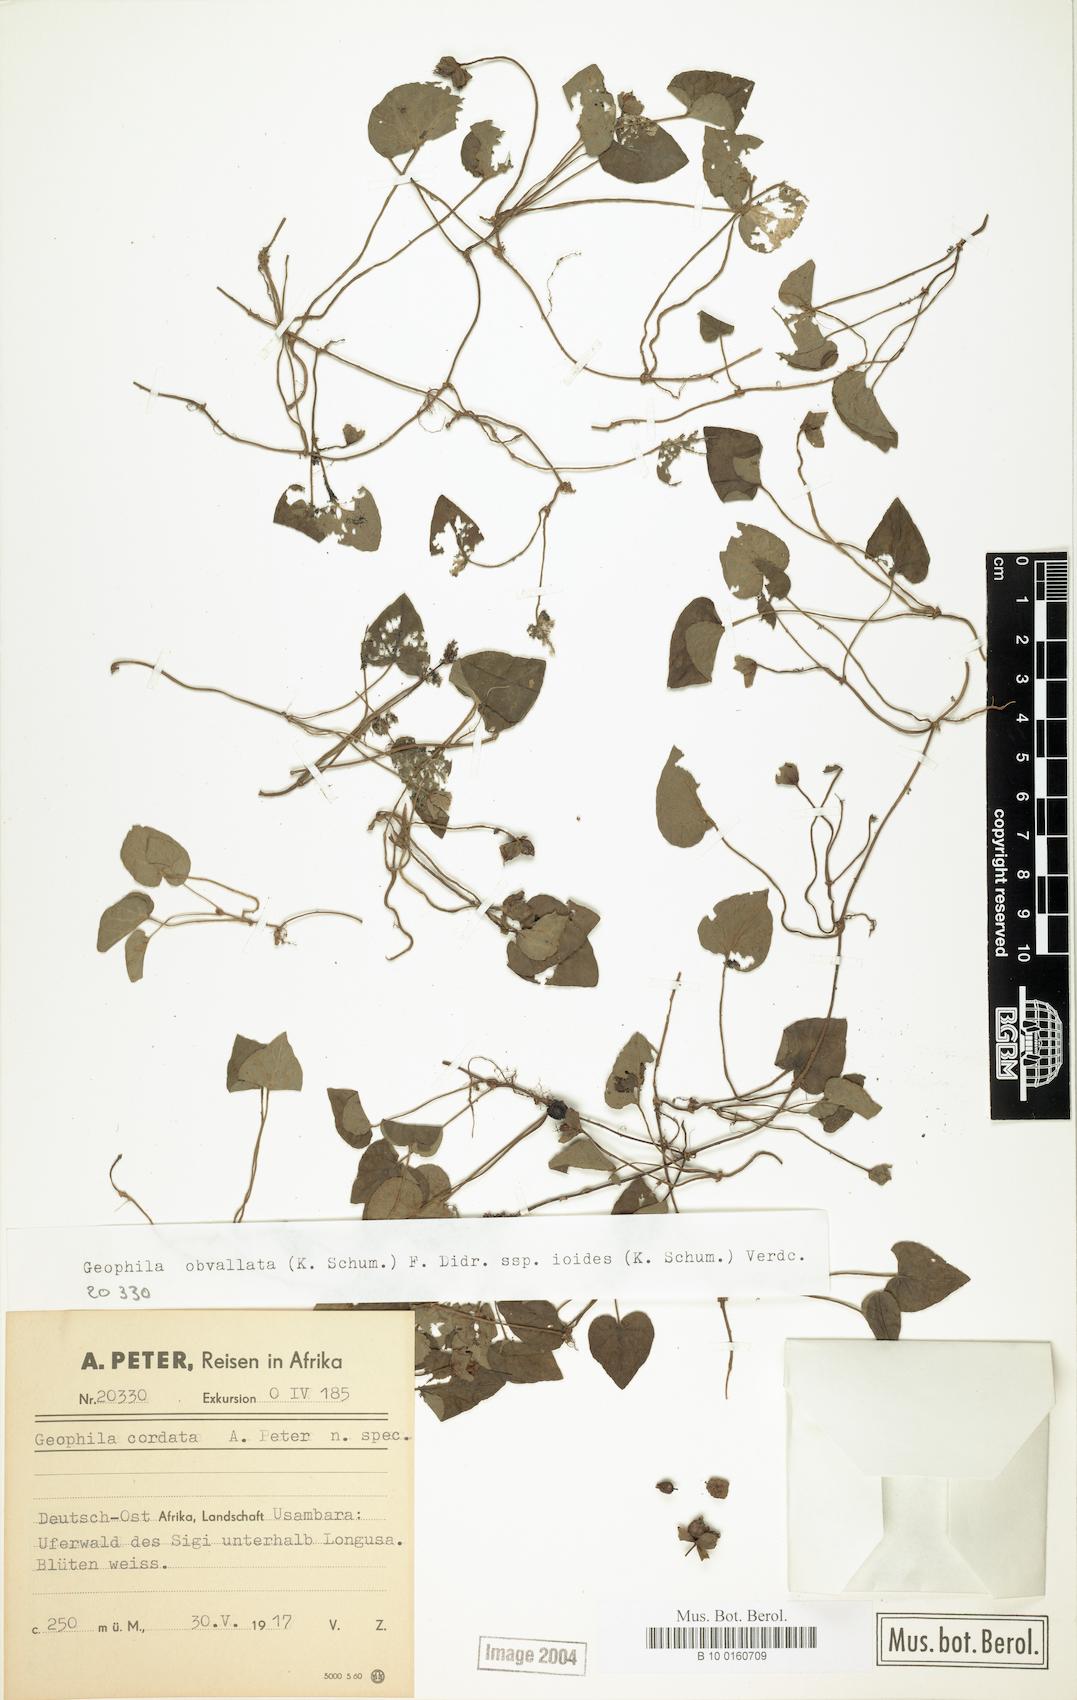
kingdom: Plantae
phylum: Tracheophyta
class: Magnoliopsida
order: Gentianales
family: Rubiaceae
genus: Geophila
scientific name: Geophila obvallata
